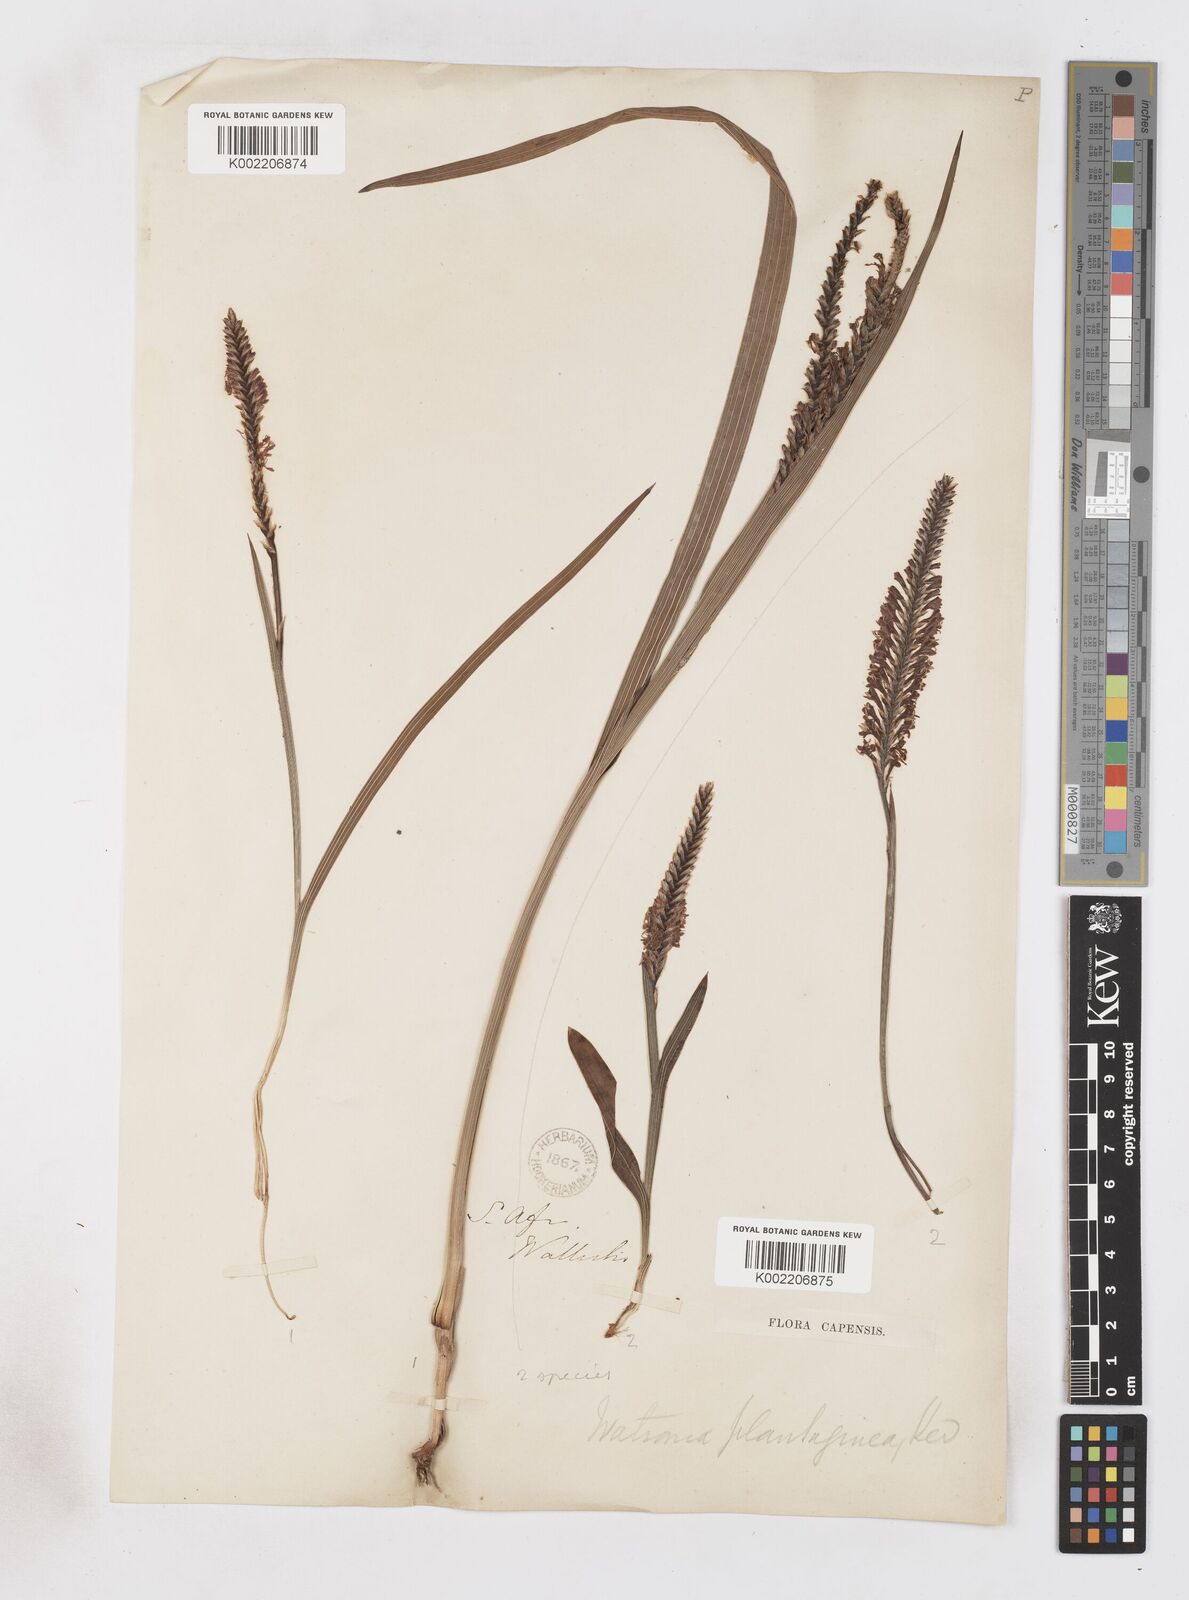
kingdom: Plantae
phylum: Tracheophyta
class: Liliopsida
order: Asparagales
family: Iridaceae
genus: Micranthus
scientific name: Micranthus plantagineus
